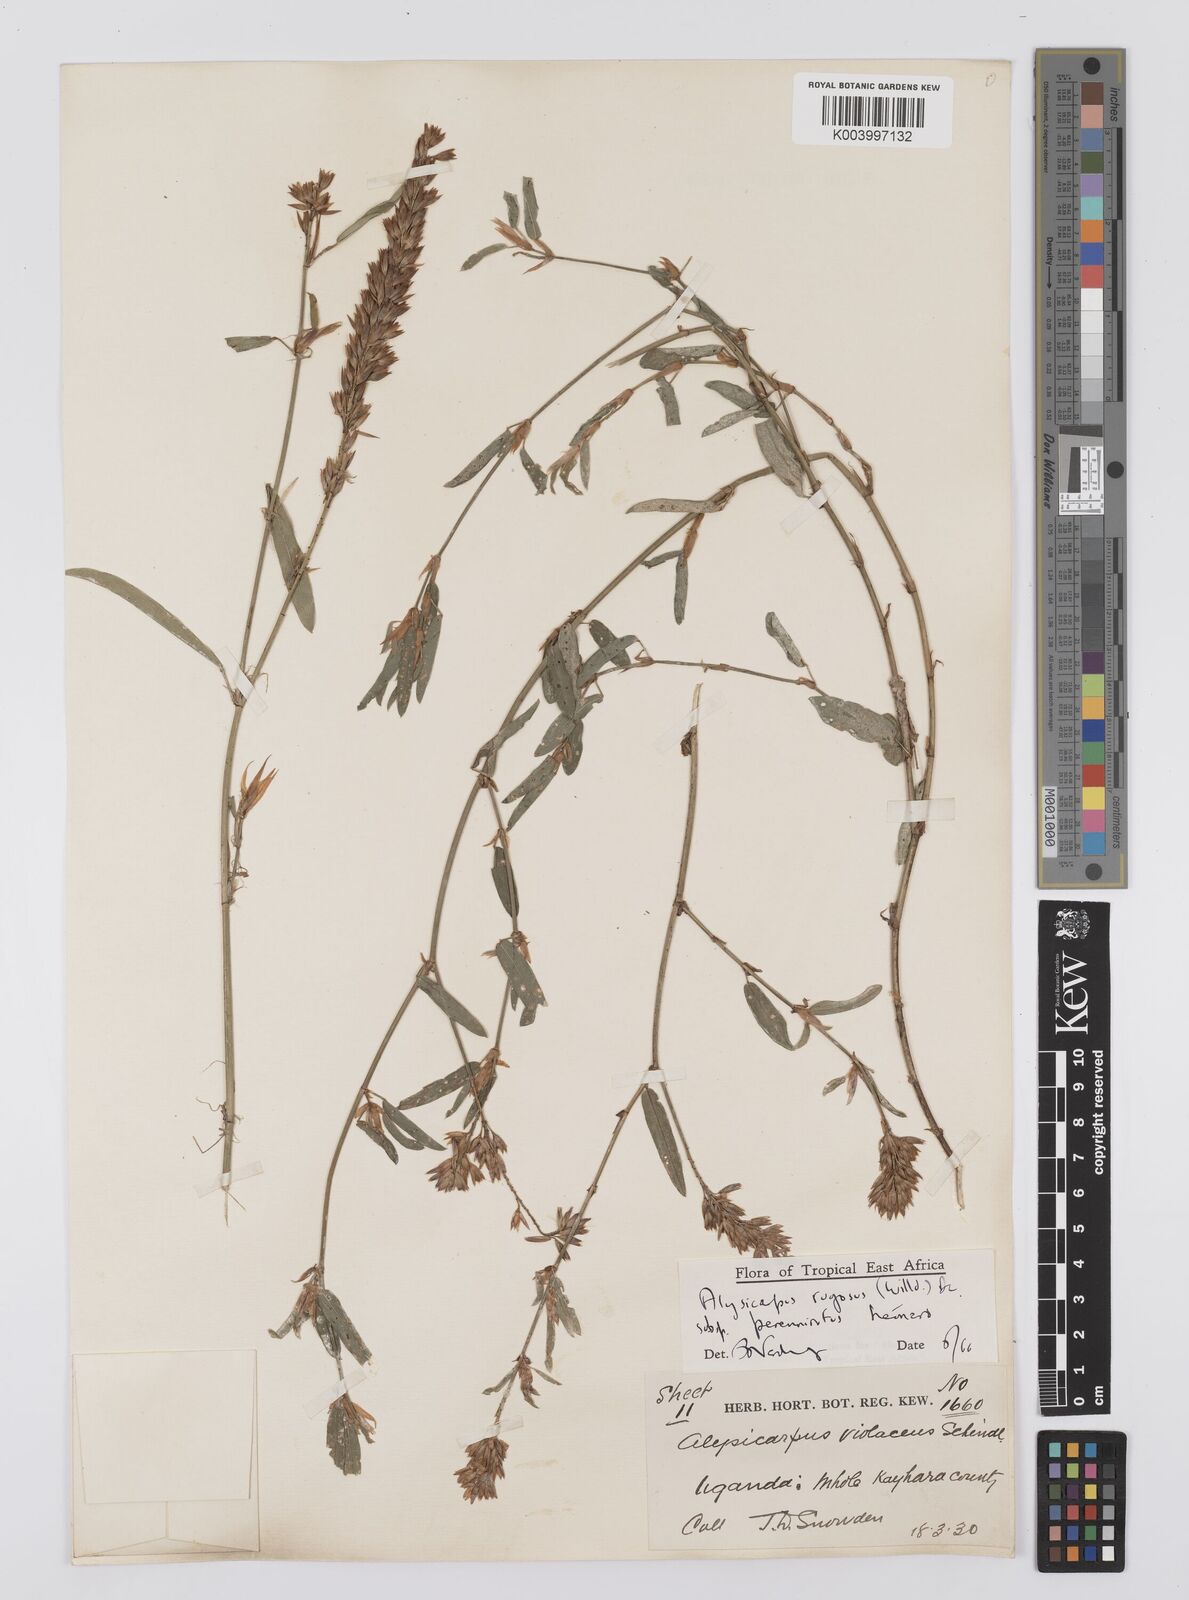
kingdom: Plantae
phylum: Tracheophyta
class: Magnoliopsida
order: Fabales
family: Fabaceae
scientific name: Fabaceae
